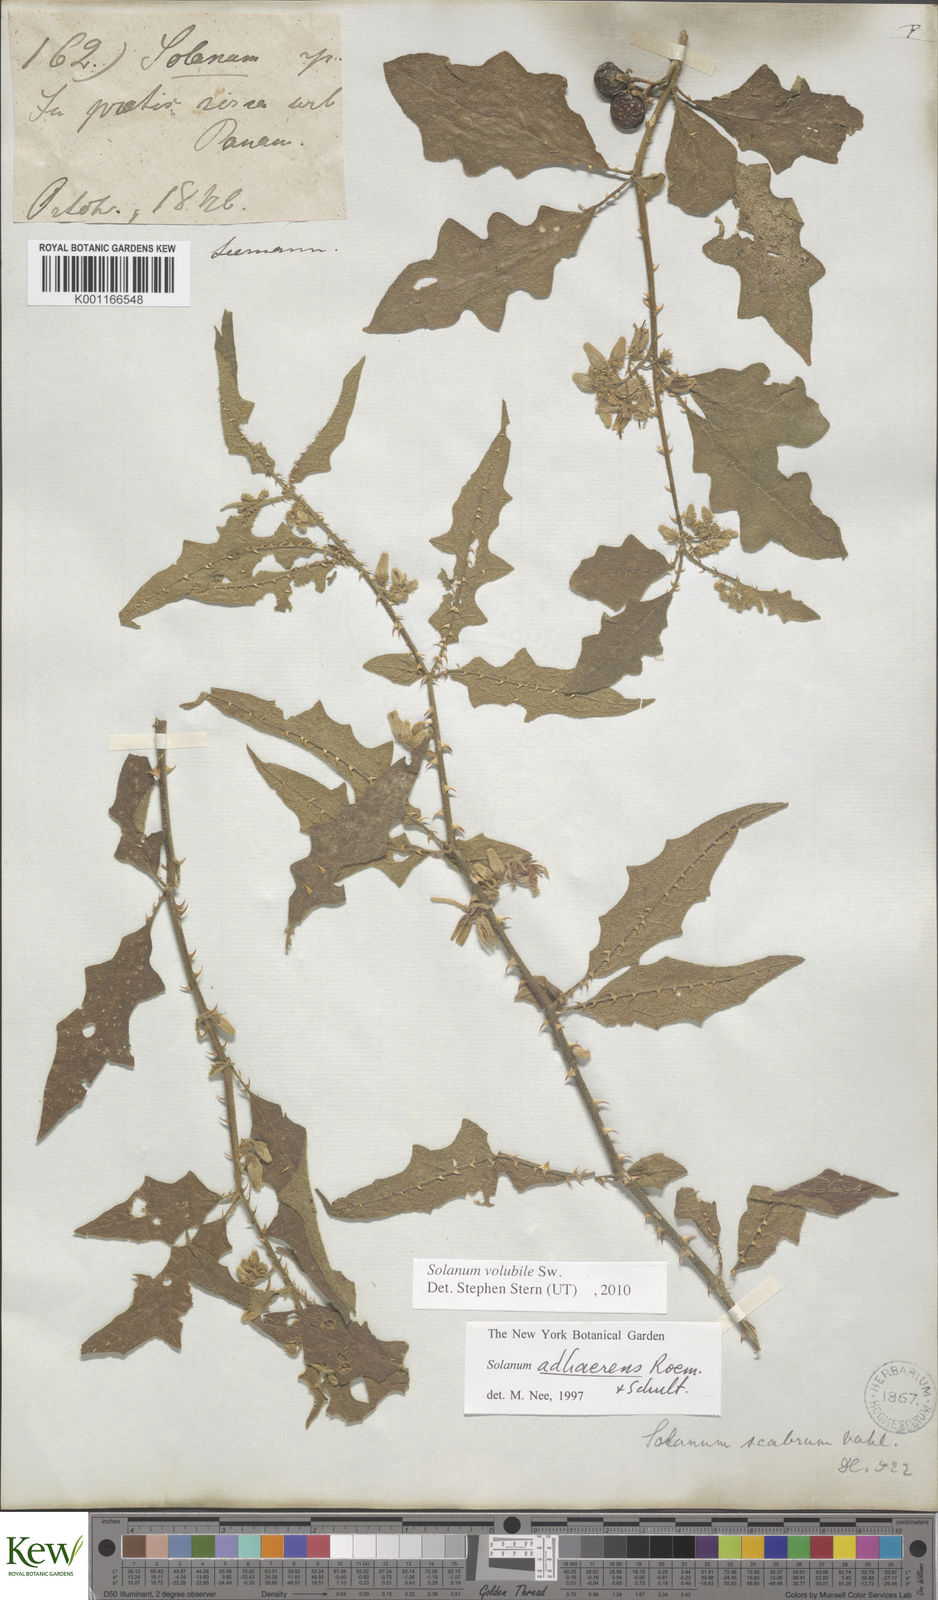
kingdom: Plantae
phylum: Tracheophyta
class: Magnoliopsida
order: Solanales
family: Solanaceae
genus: Solanum
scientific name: Solanum volubile
